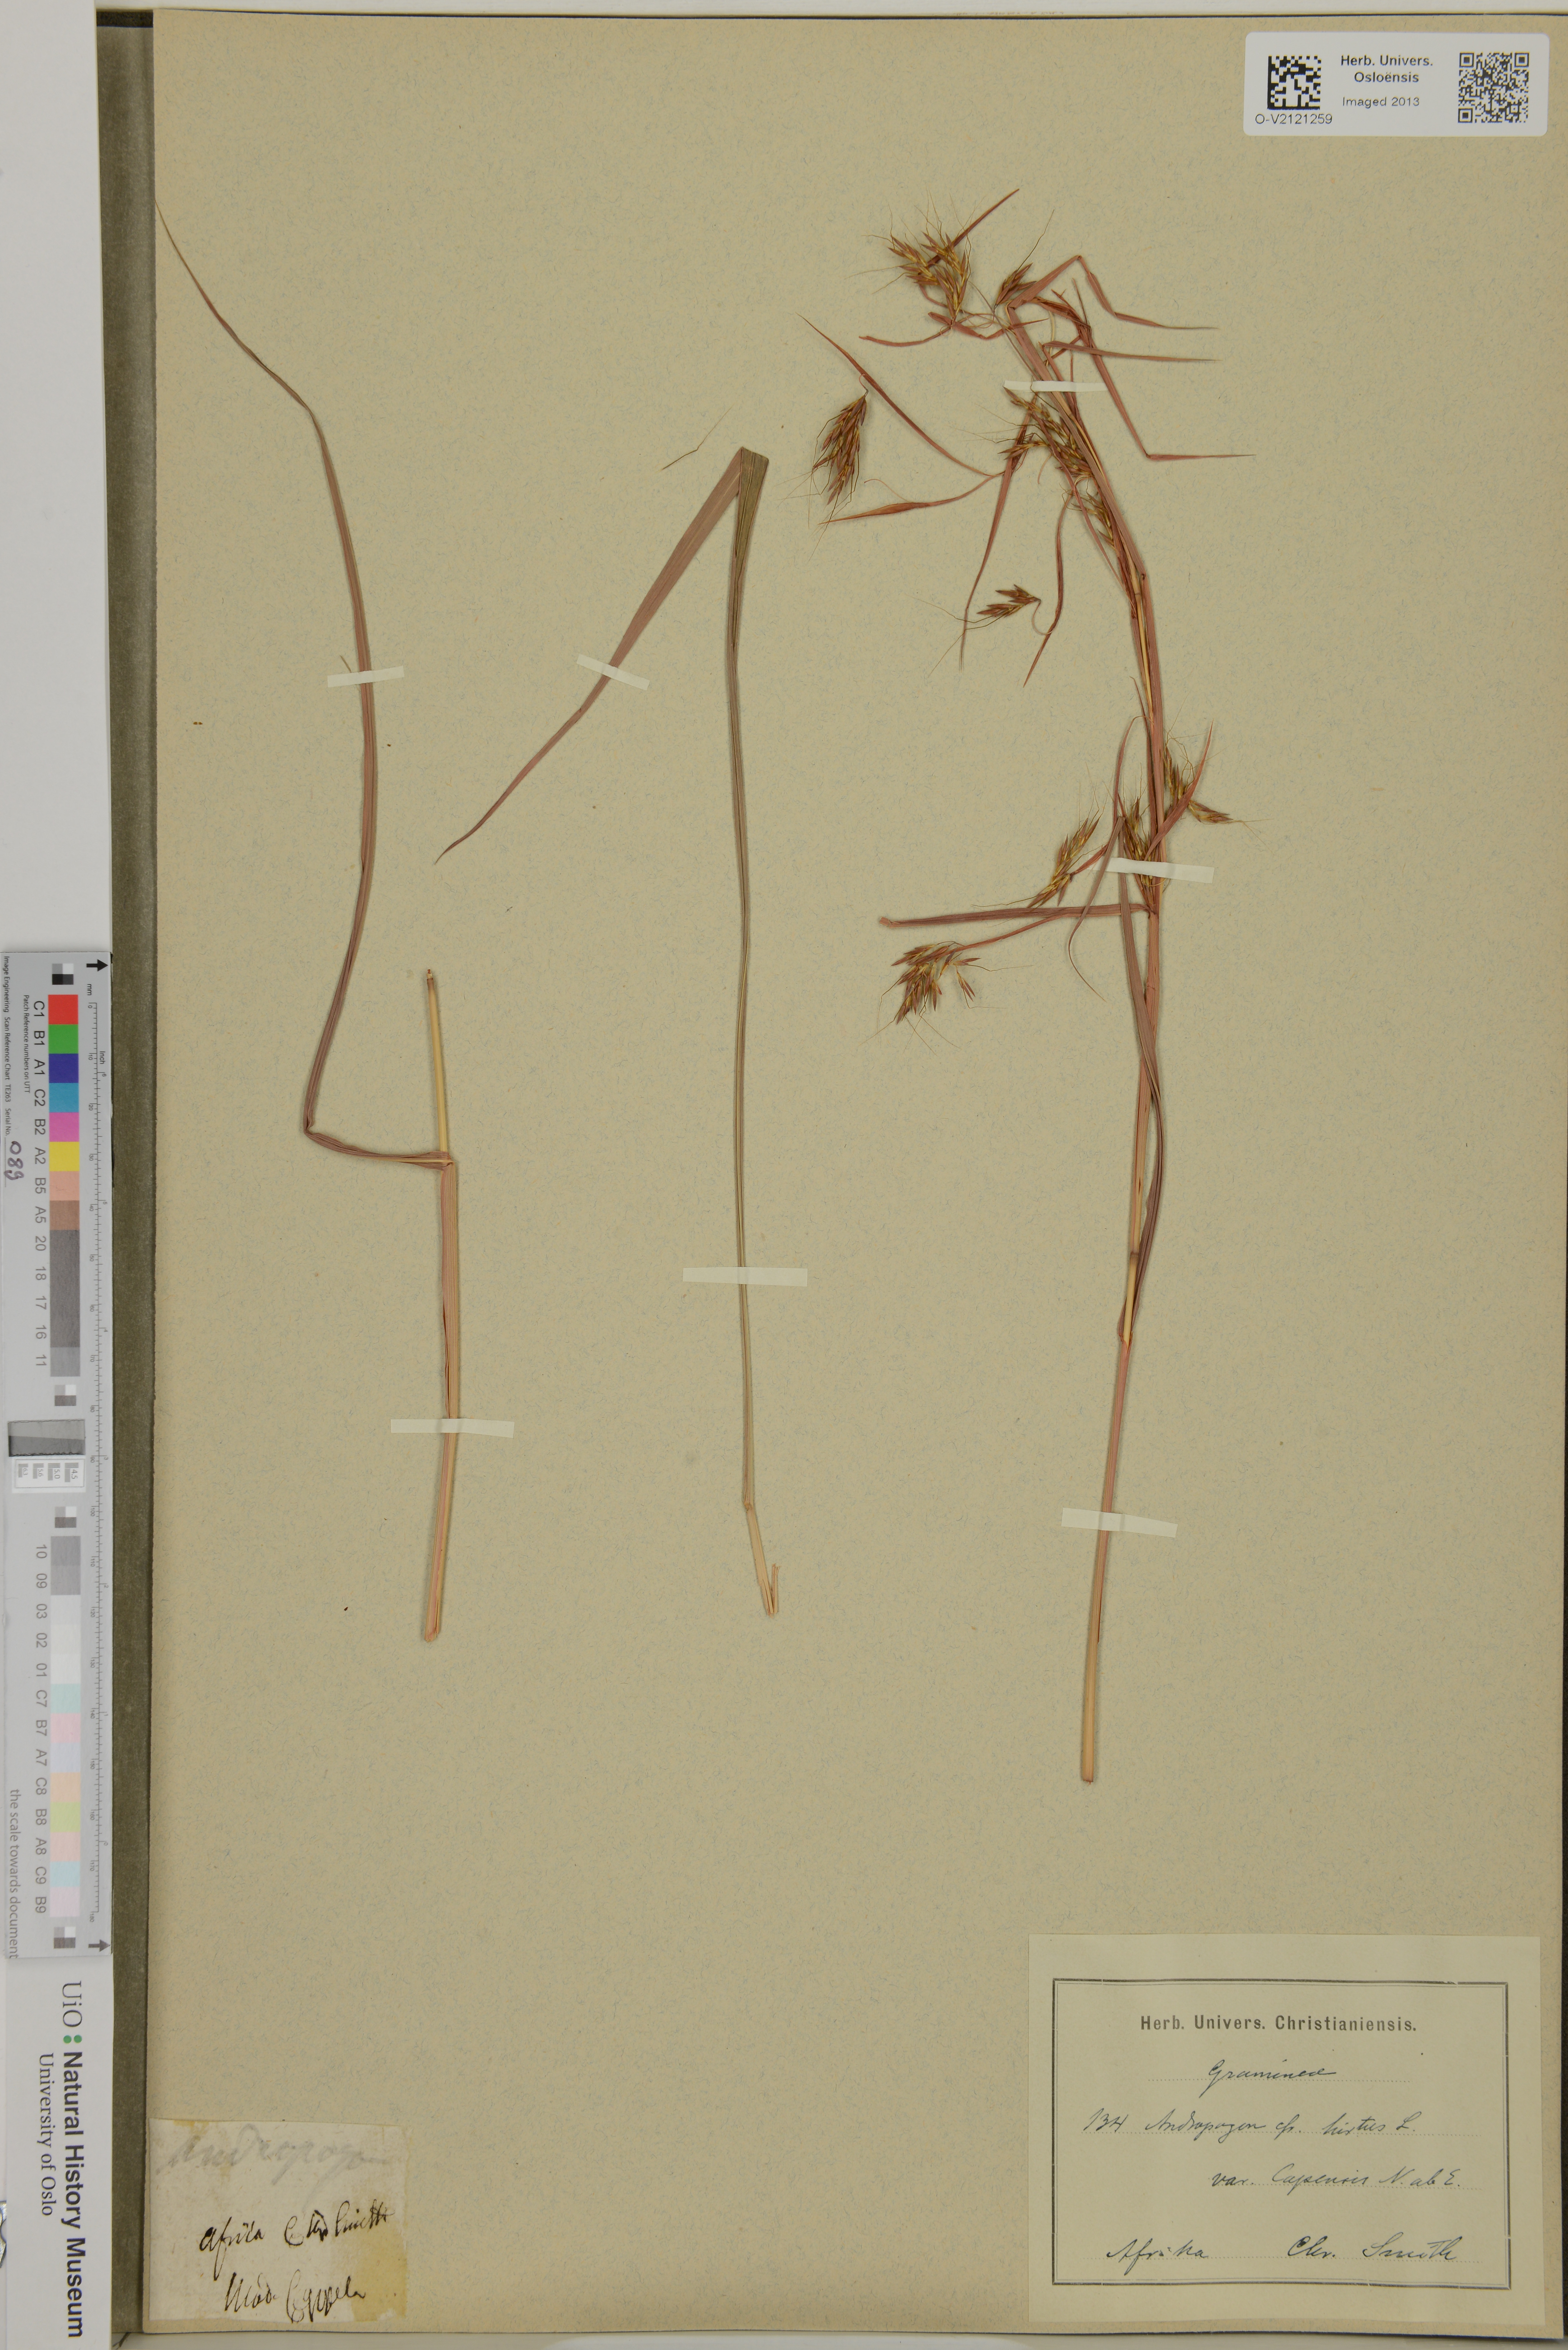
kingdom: Plantae
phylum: Tracheophyta
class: Liliopsida
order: Poales
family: Poaceae
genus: Hyparrhenia
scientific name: Hyparrhenia
